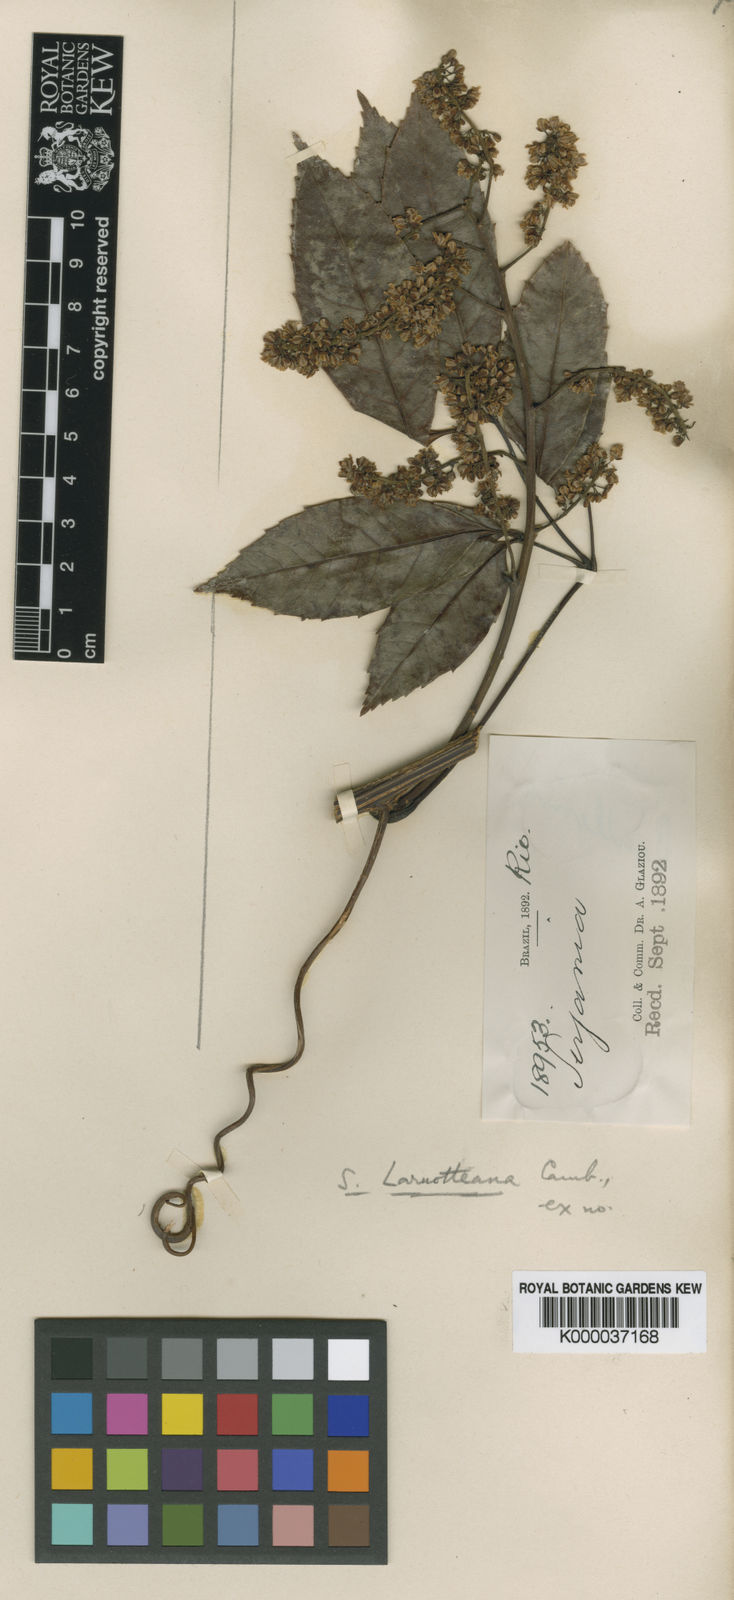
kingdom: Plantae
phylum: Tracheophyta
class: Magnoliopsida
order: Sapindales
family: Sapindaceae
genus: Serjania
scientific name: Serjania laruotteana
